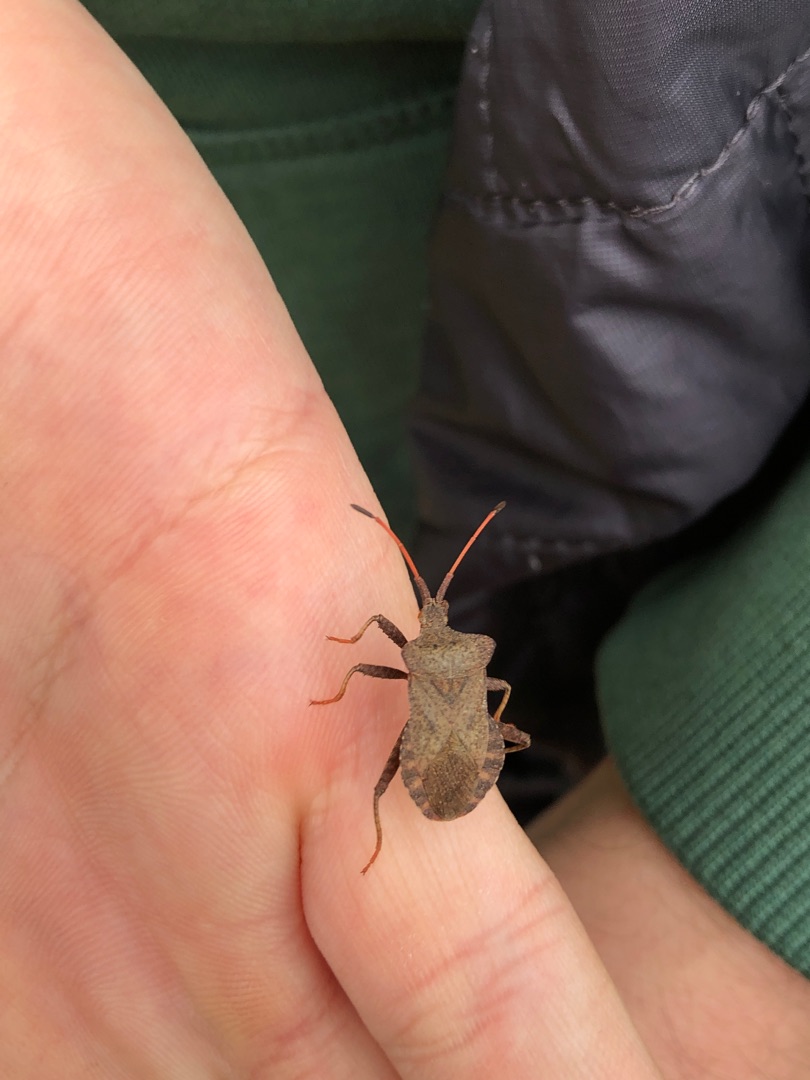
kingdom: Animalia
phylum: Arthropoda
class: Insecta
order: Hemiptera
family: Coreidae
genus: Coreus
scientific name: Coreus marginatus
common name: Skræppetæge
